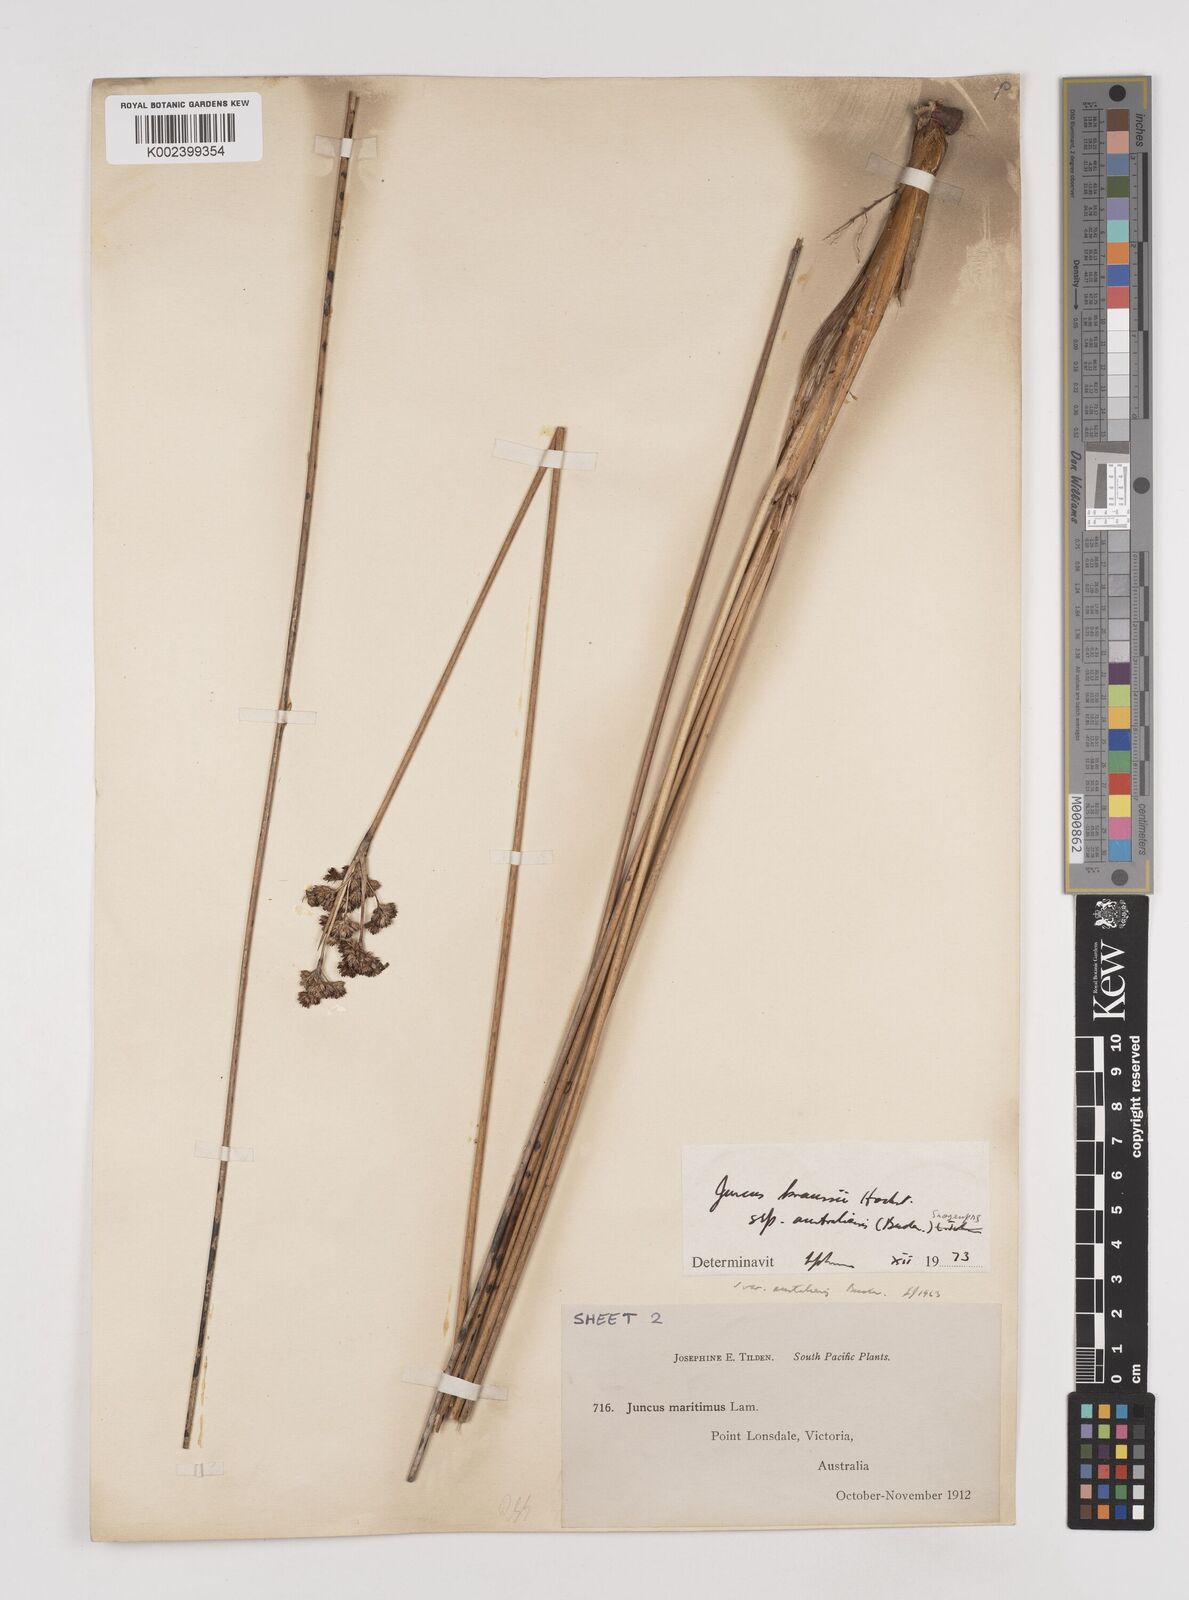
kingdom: Plantae
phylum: Tracheophyta
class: Liliopsida
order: Poales
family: Juncaceae
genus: Juncus
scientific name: Juncus kraussii
